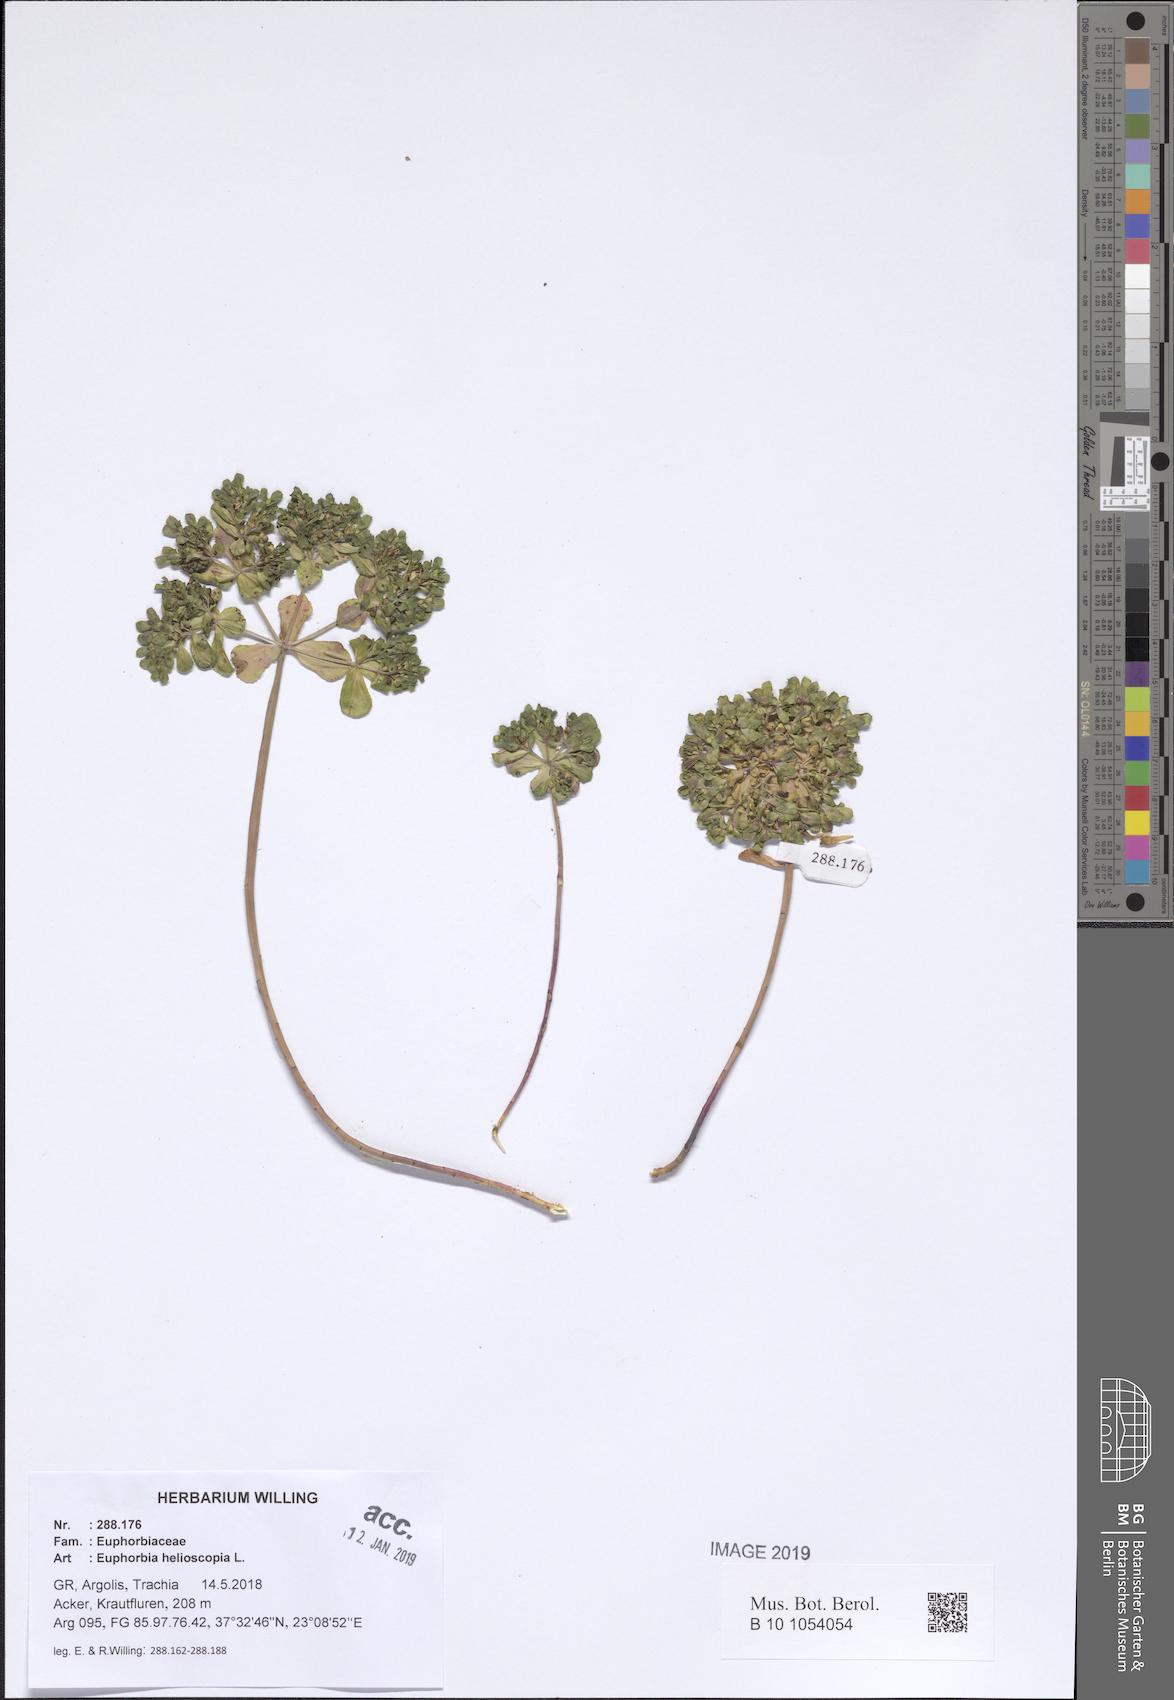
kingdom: Plantae
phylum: Tracheophyta
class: Magnoliopsida
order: Malpighiales
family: Euphorbiaceae
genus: Euphorbia
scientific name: Euphorbia helioscopia
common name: Sun spurge
